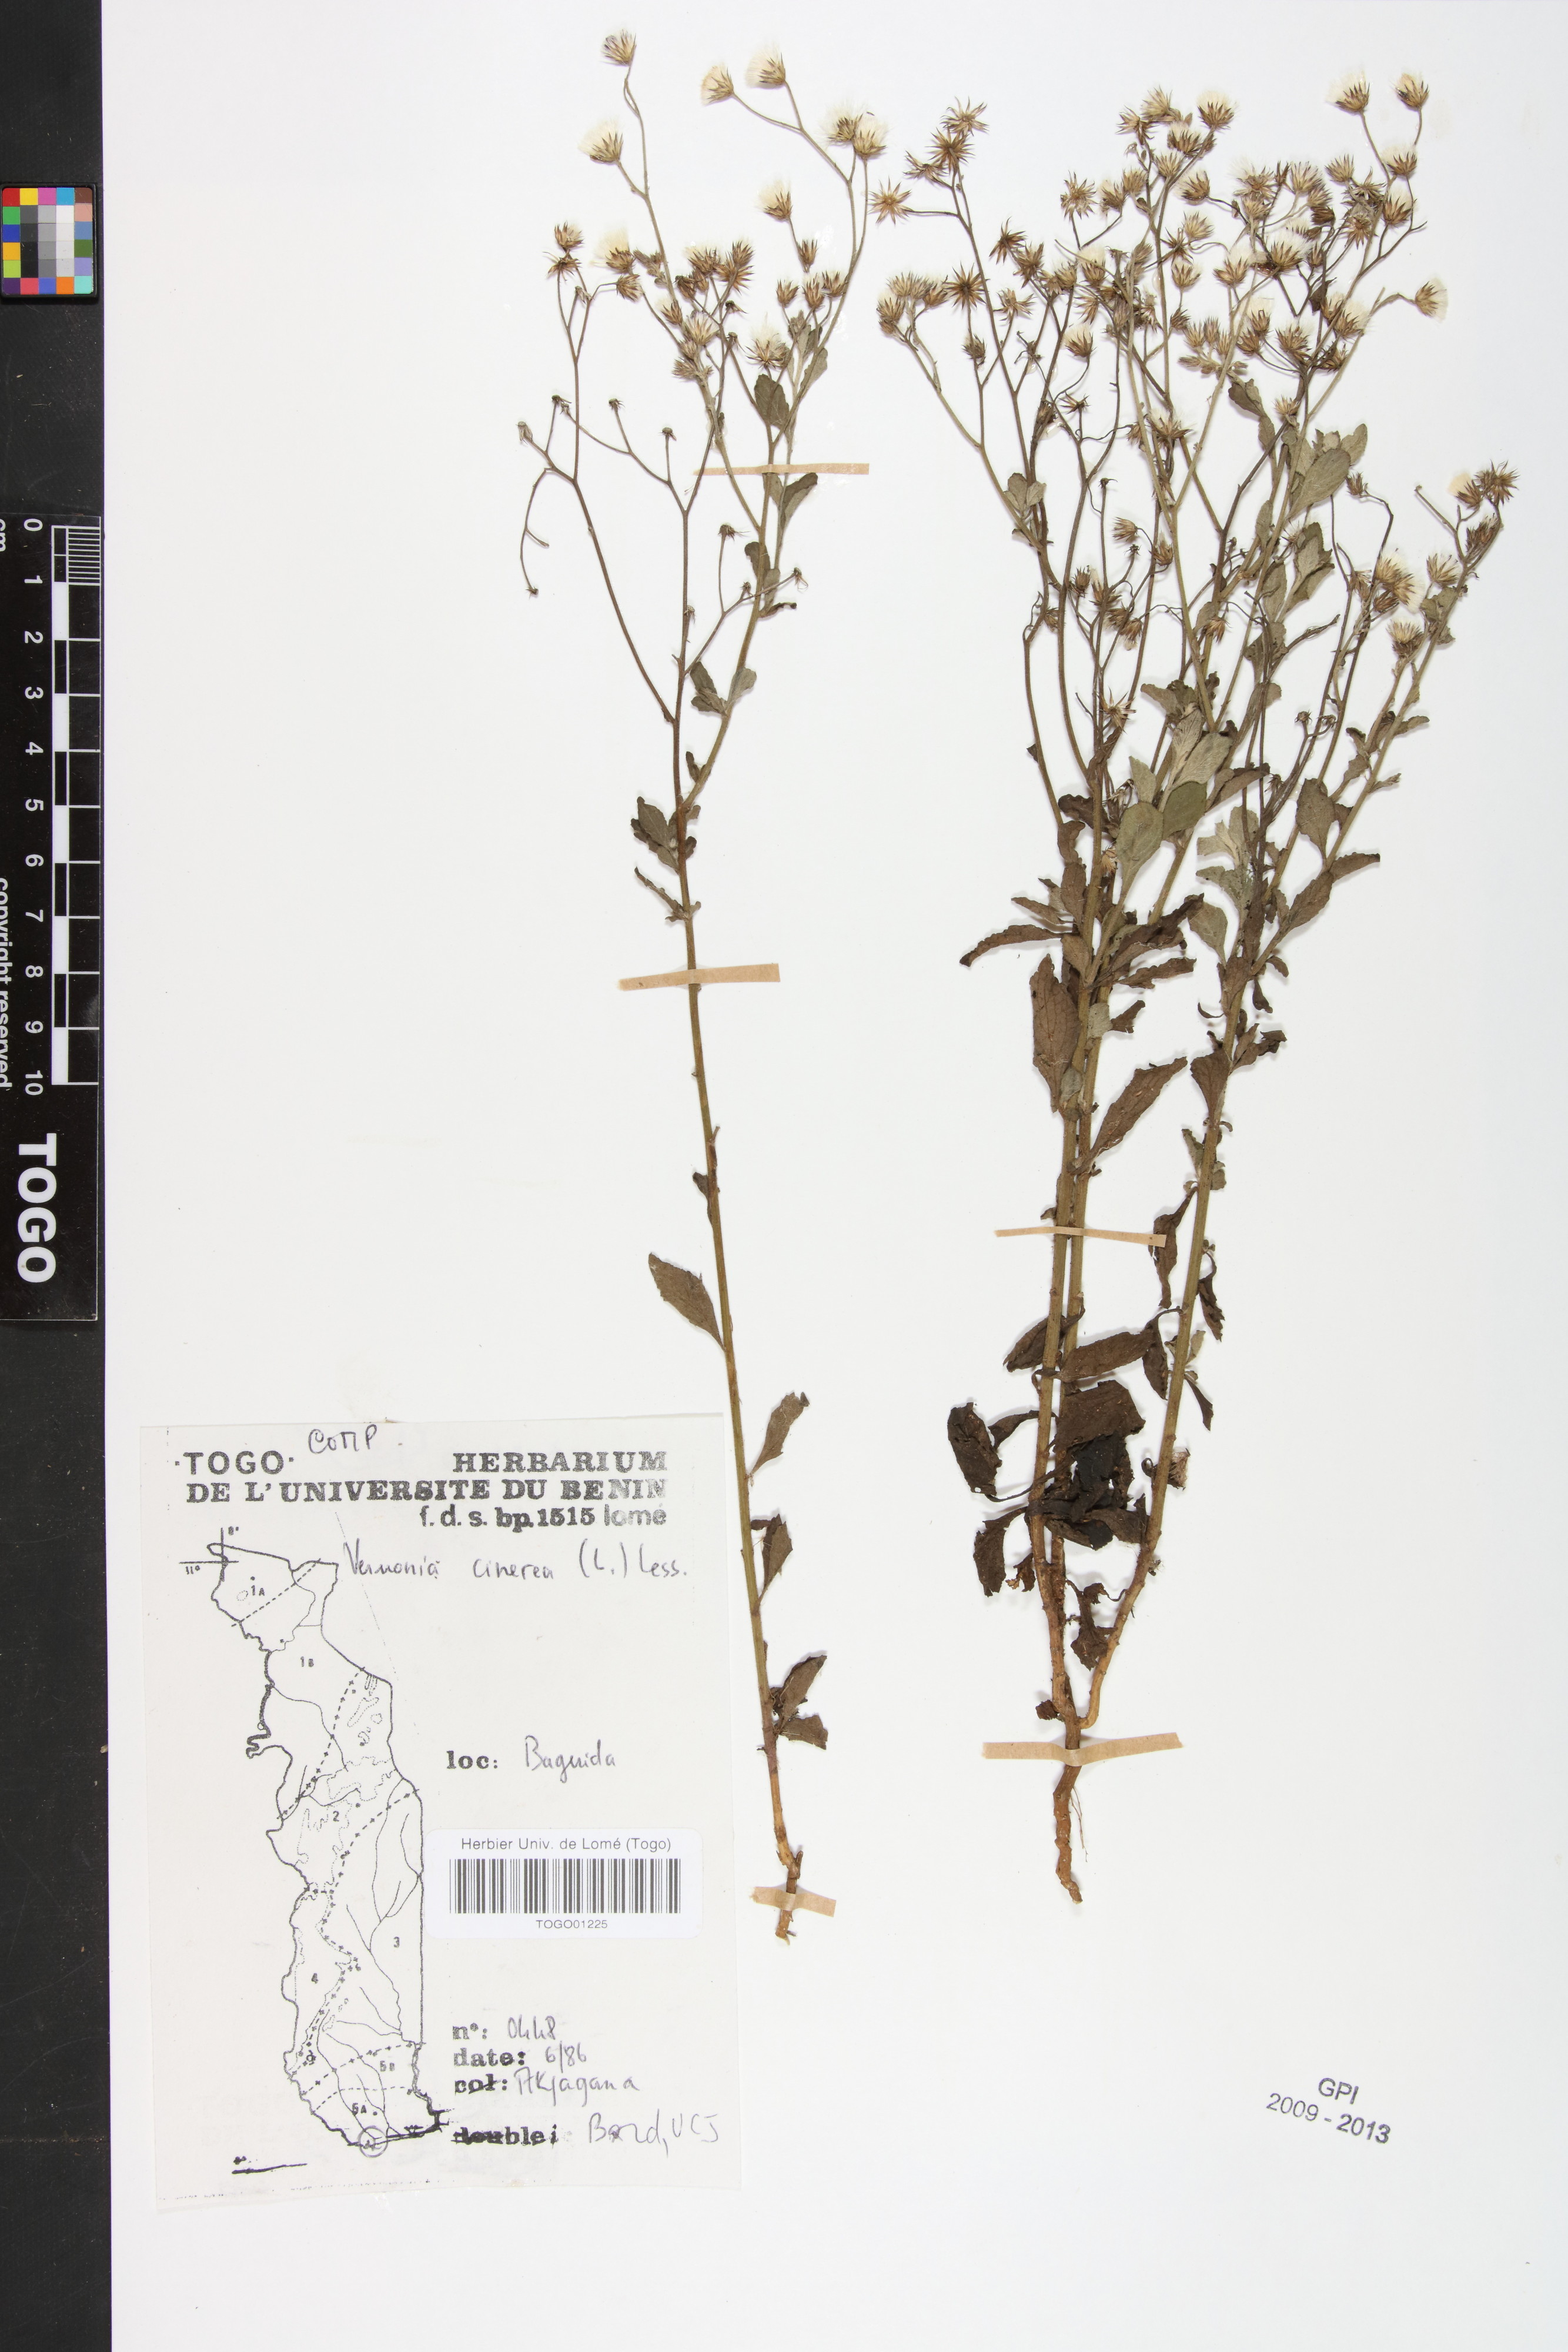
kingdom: Plantae
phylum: Tracheophyta
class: Magnoliopsida
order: Asterales
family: Asteraceae
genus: Cyanthillium
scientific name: Cyanthillium cinereum
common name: Little ironweed
